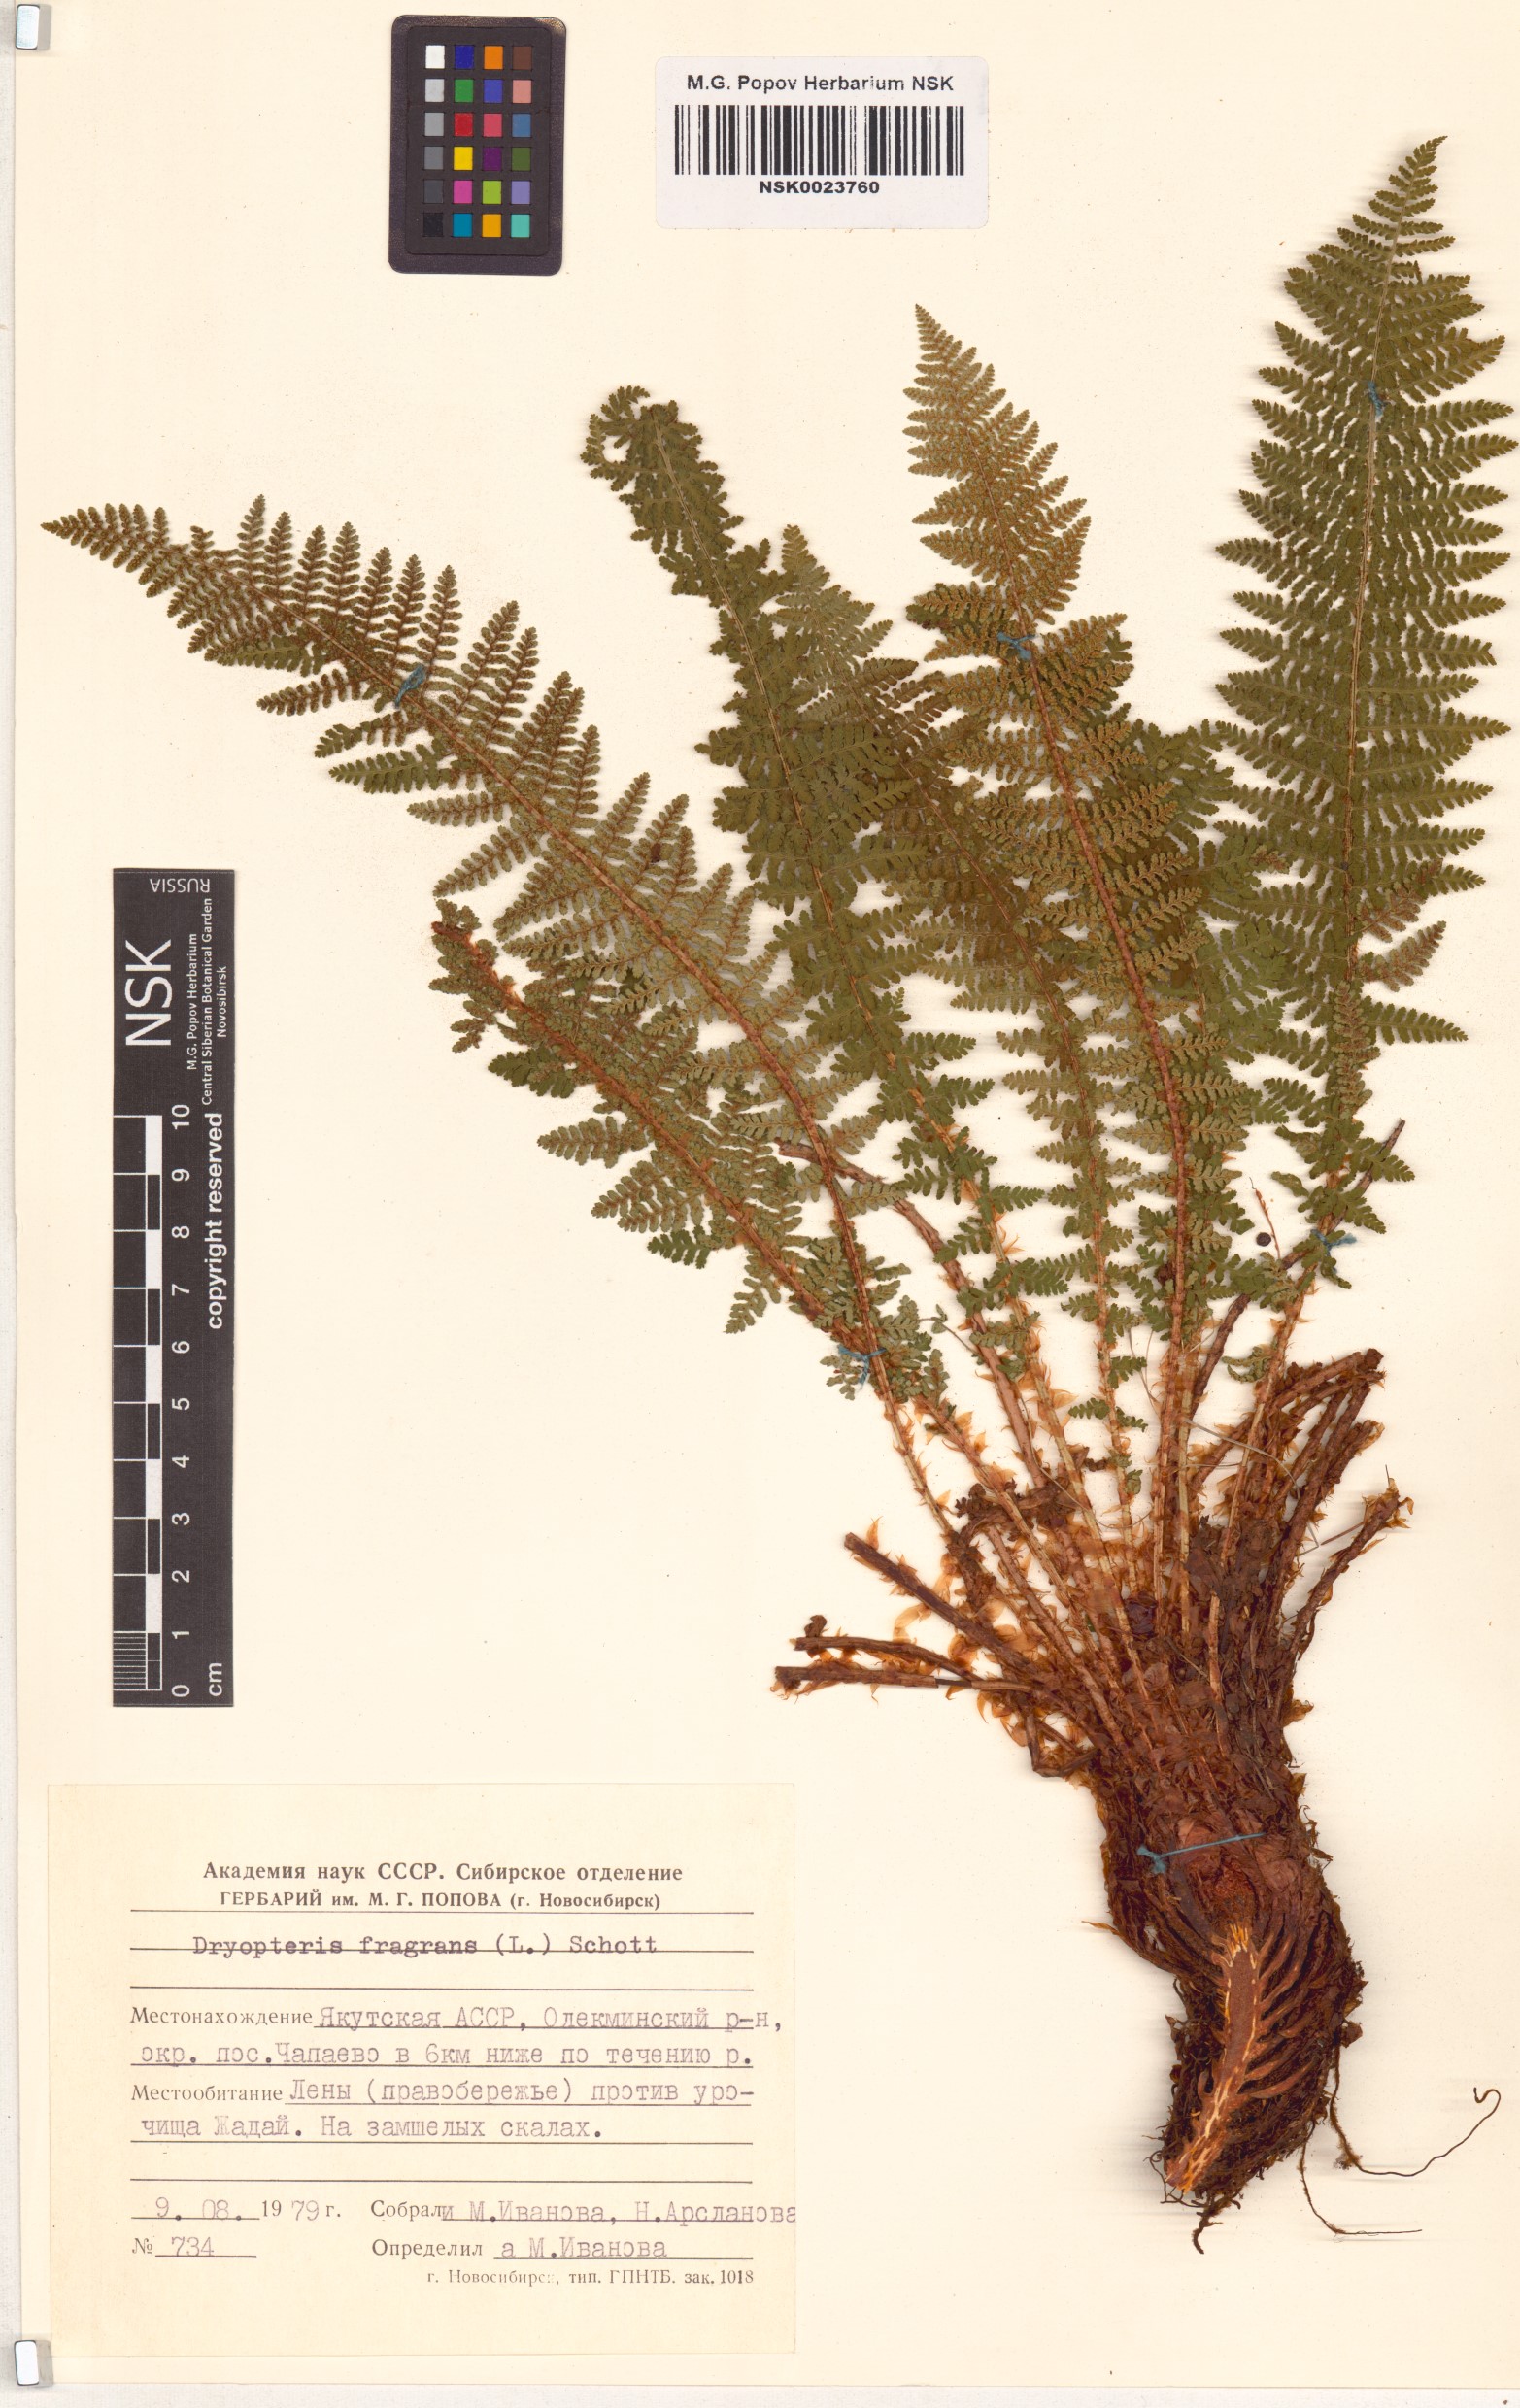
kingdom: Plantae
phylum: Tracheophyta
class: Polypodiopsida
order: Polypodiales
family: Dryopteridaceae
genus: Dryopteris
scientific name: Dryopteris fragrans
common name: Fragrant wood fern
